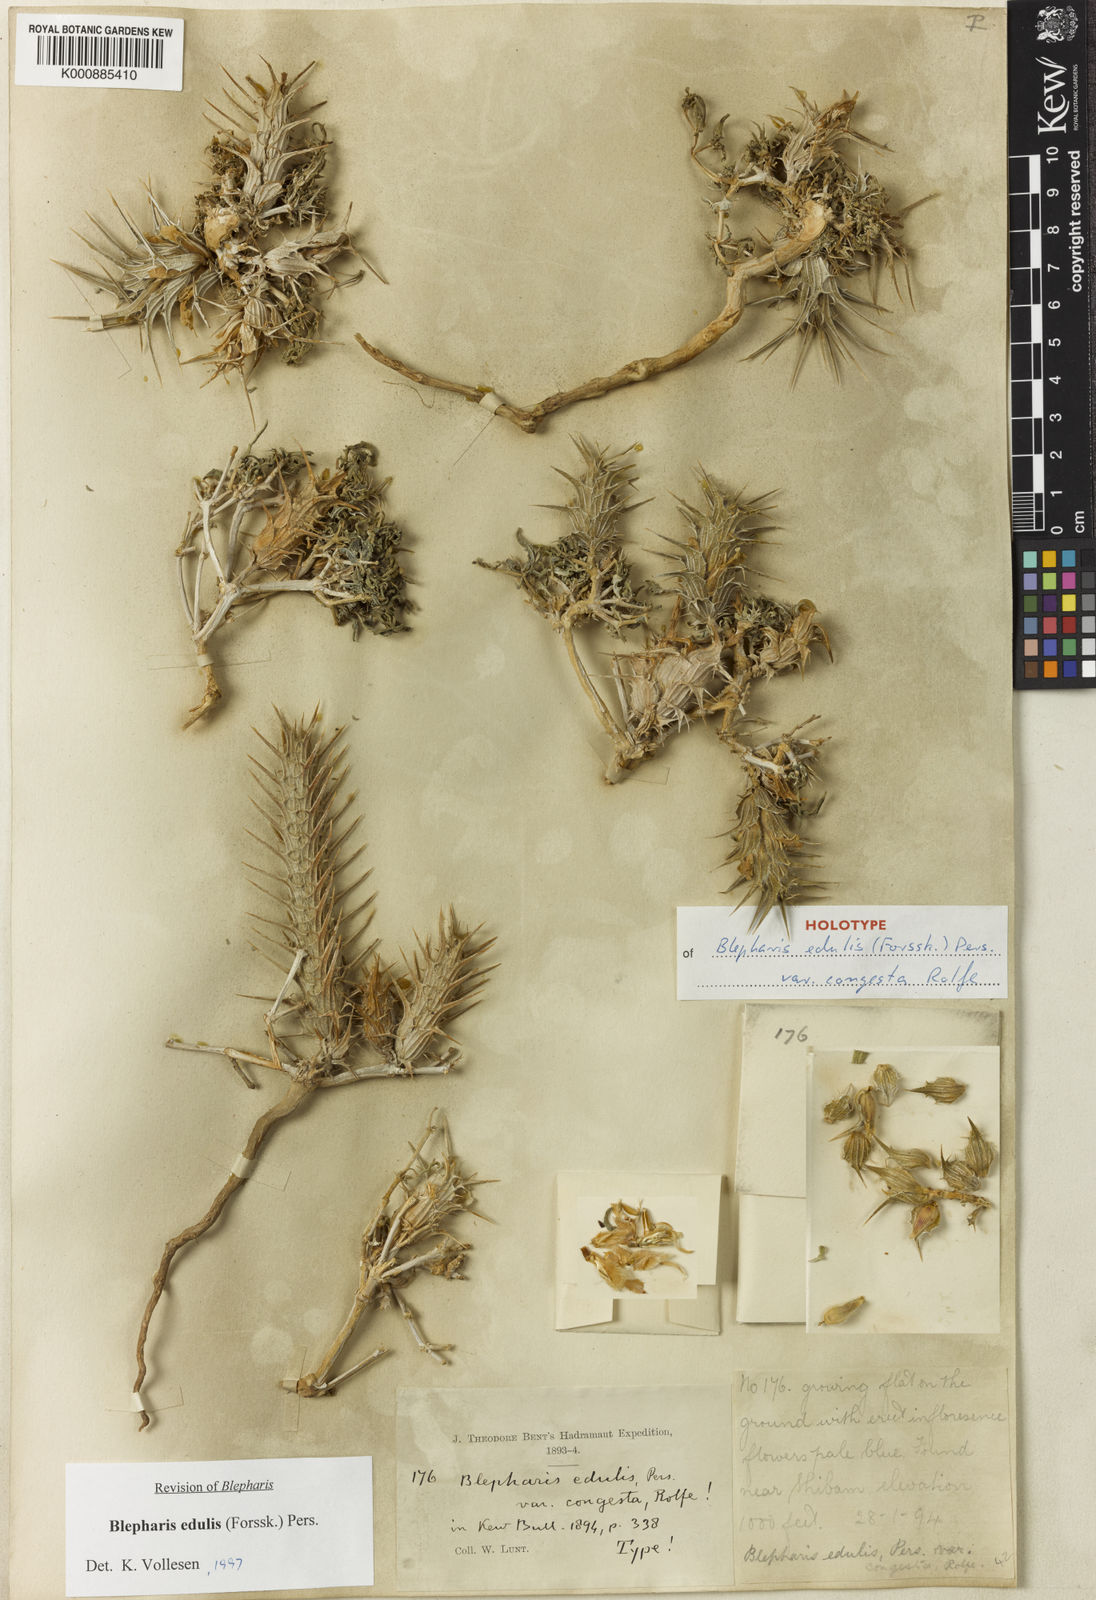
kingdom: Plantae
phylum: Tracheophyta
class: Magnoliopsida
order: Lamiales
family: Acanthaceae
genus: Blepharis
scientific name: Blepharis edulis
